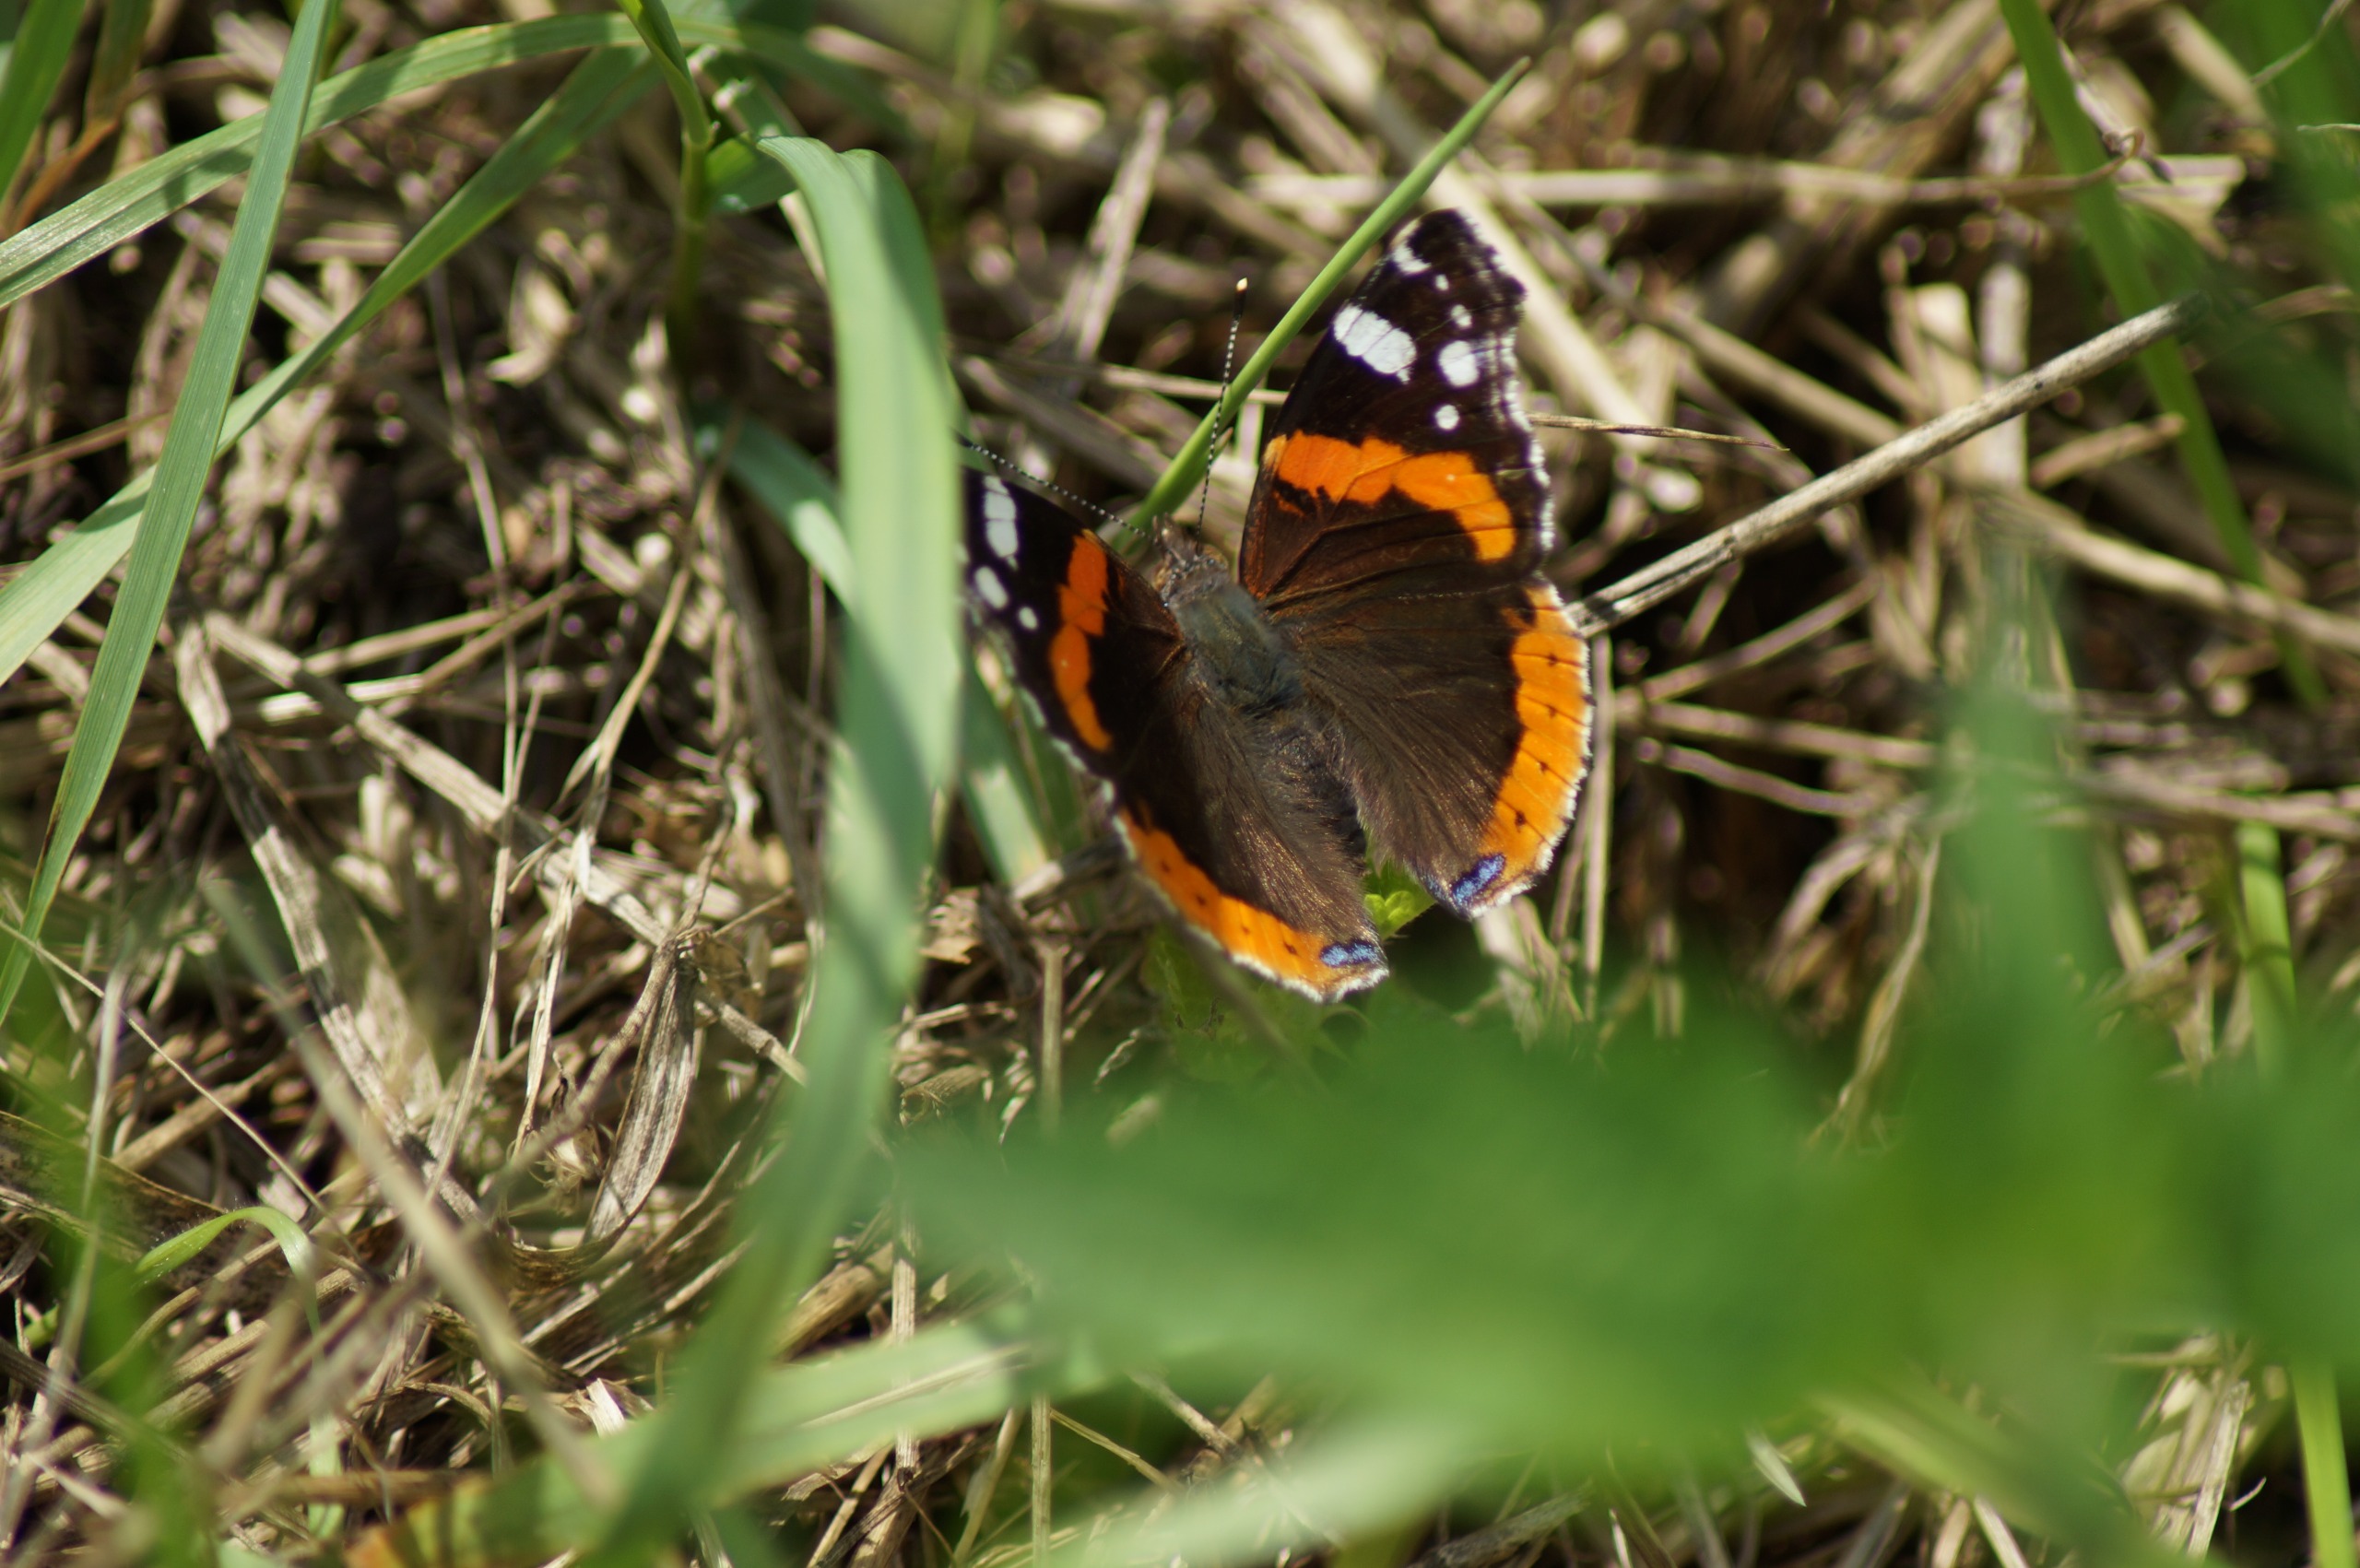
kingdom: Animalia
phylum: Arthropoda
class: Insecta
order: Lepidoptera
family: Nymphalidae
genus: Vanessa
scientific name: Vanessa atalanta
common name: Admiral
